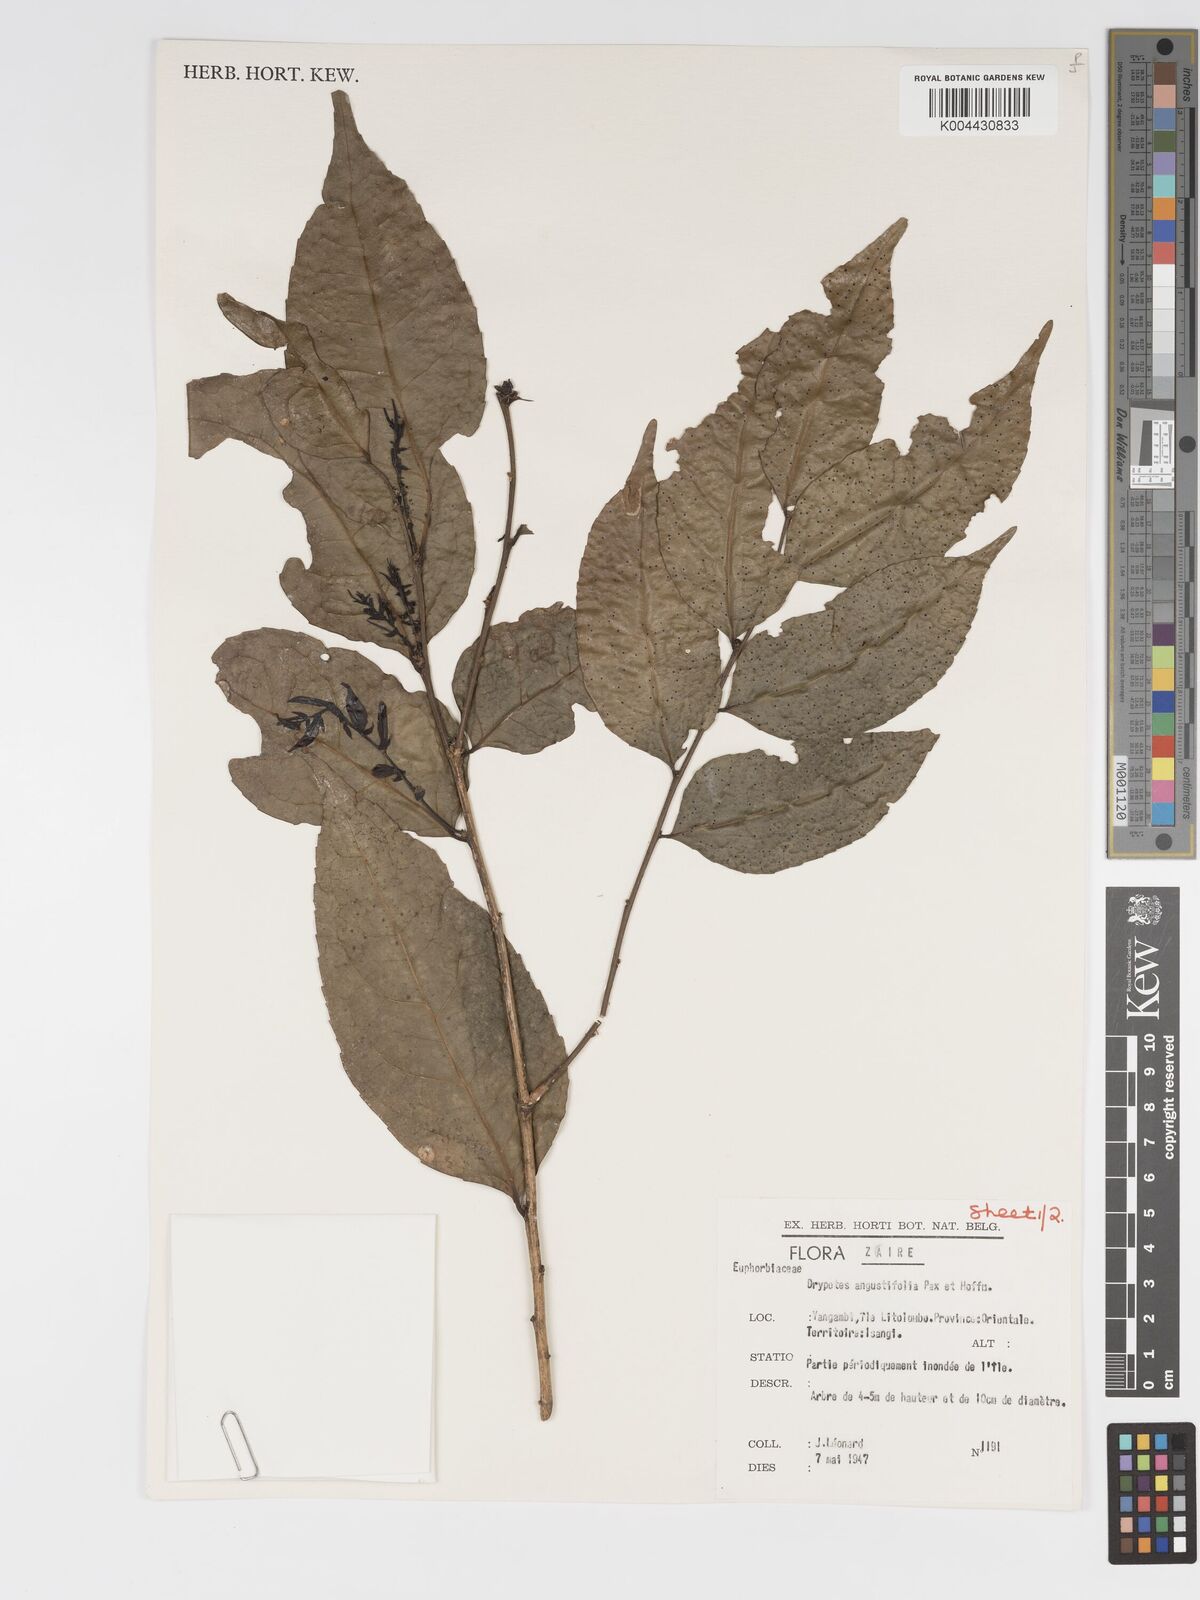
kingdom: Plantae
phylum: Tracheophyta
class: Magnoliopsida
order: Malpighiales
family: Putranjivaceae
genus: Drypetes
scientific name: Drypetes angustifolia
